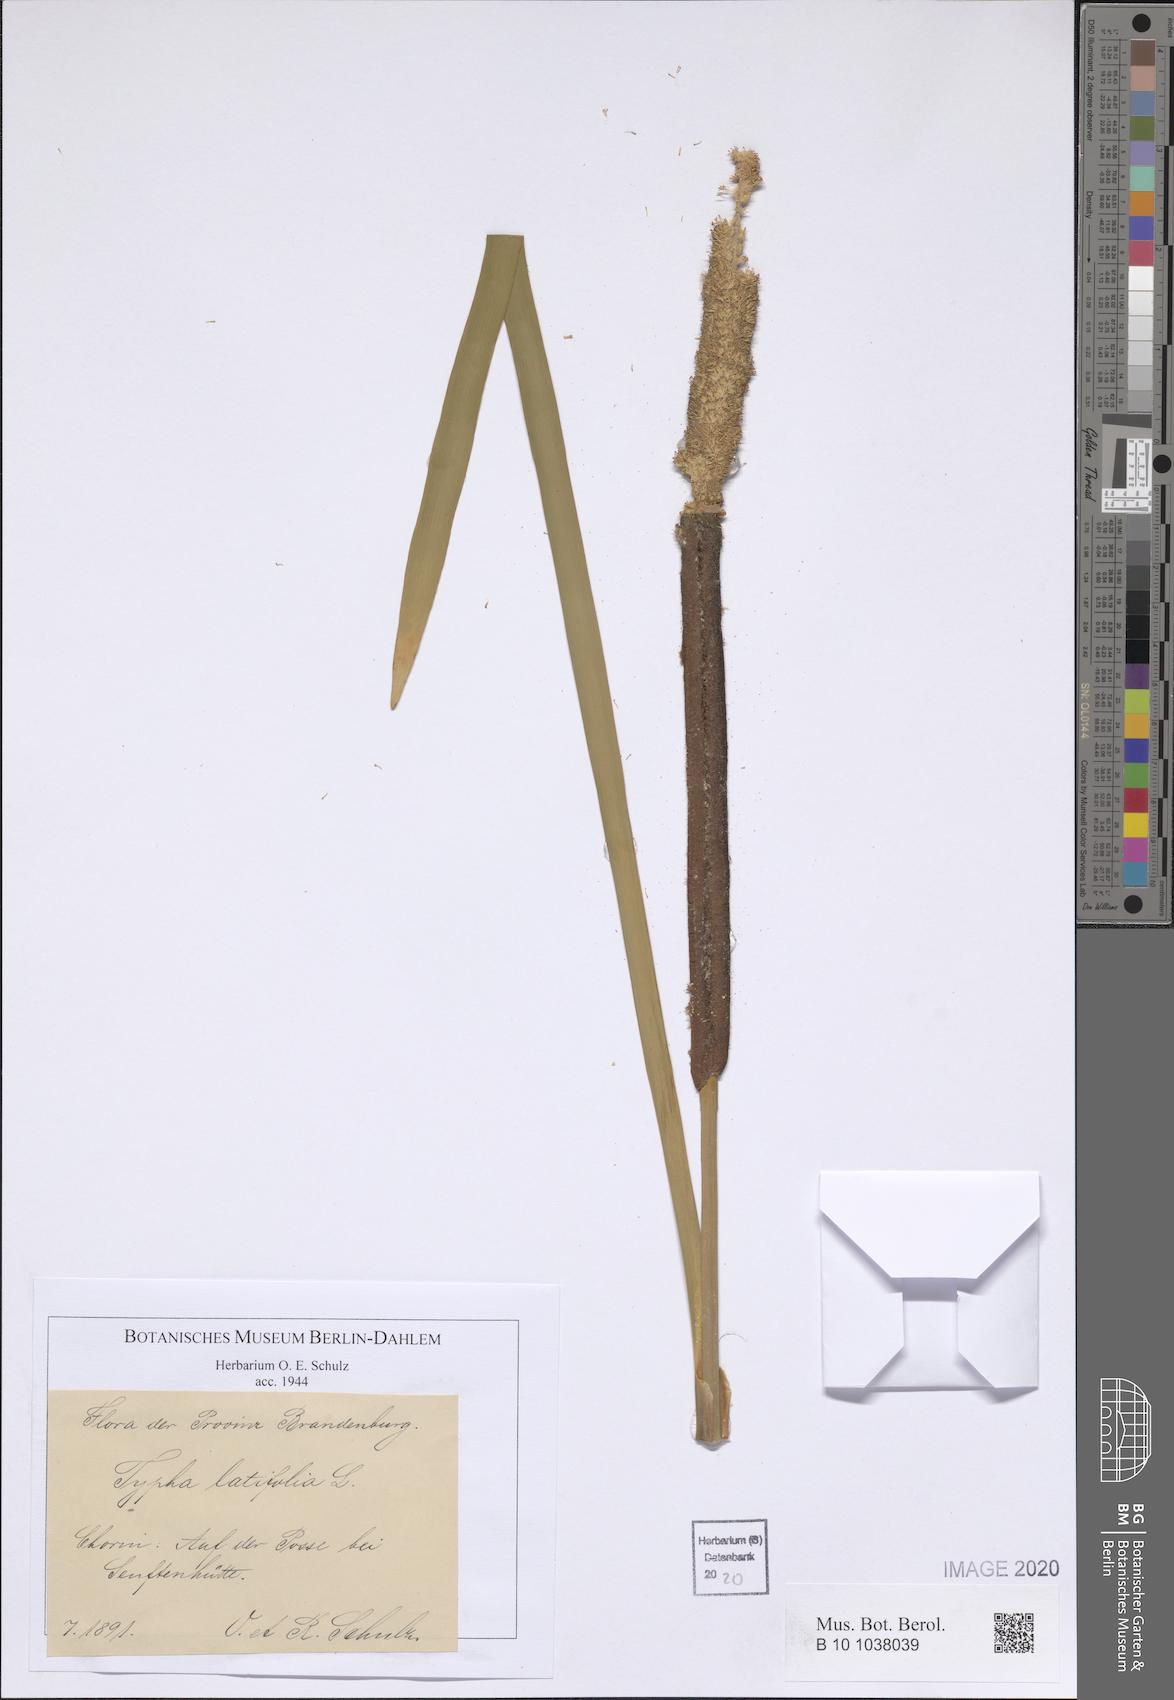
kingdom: Plantae
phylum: Tracheophyta
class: Liliopsida
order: Poales
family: Typhaceae
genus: Typha
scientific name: Typha latifolia
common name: Broadleaf cattail
